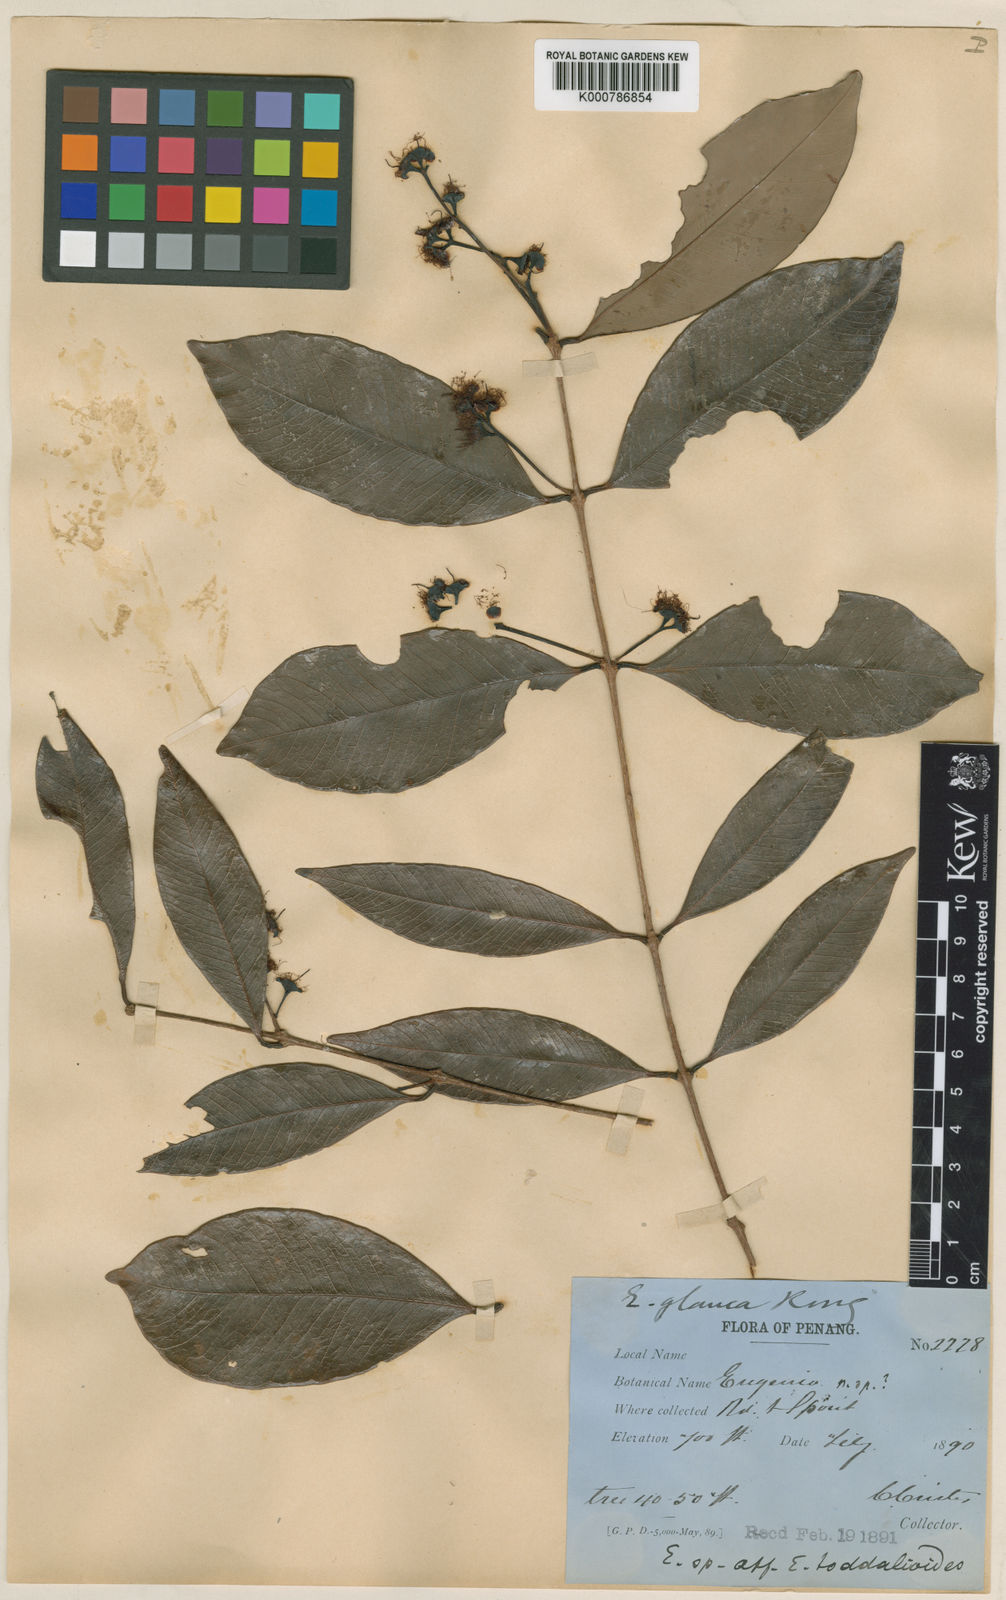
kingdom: Plantae
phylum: Tracheophyta
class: Magnoliopsida
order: Myrtales
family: Myrtaceae
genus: Syzygium
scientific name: Syzygium glaucum
